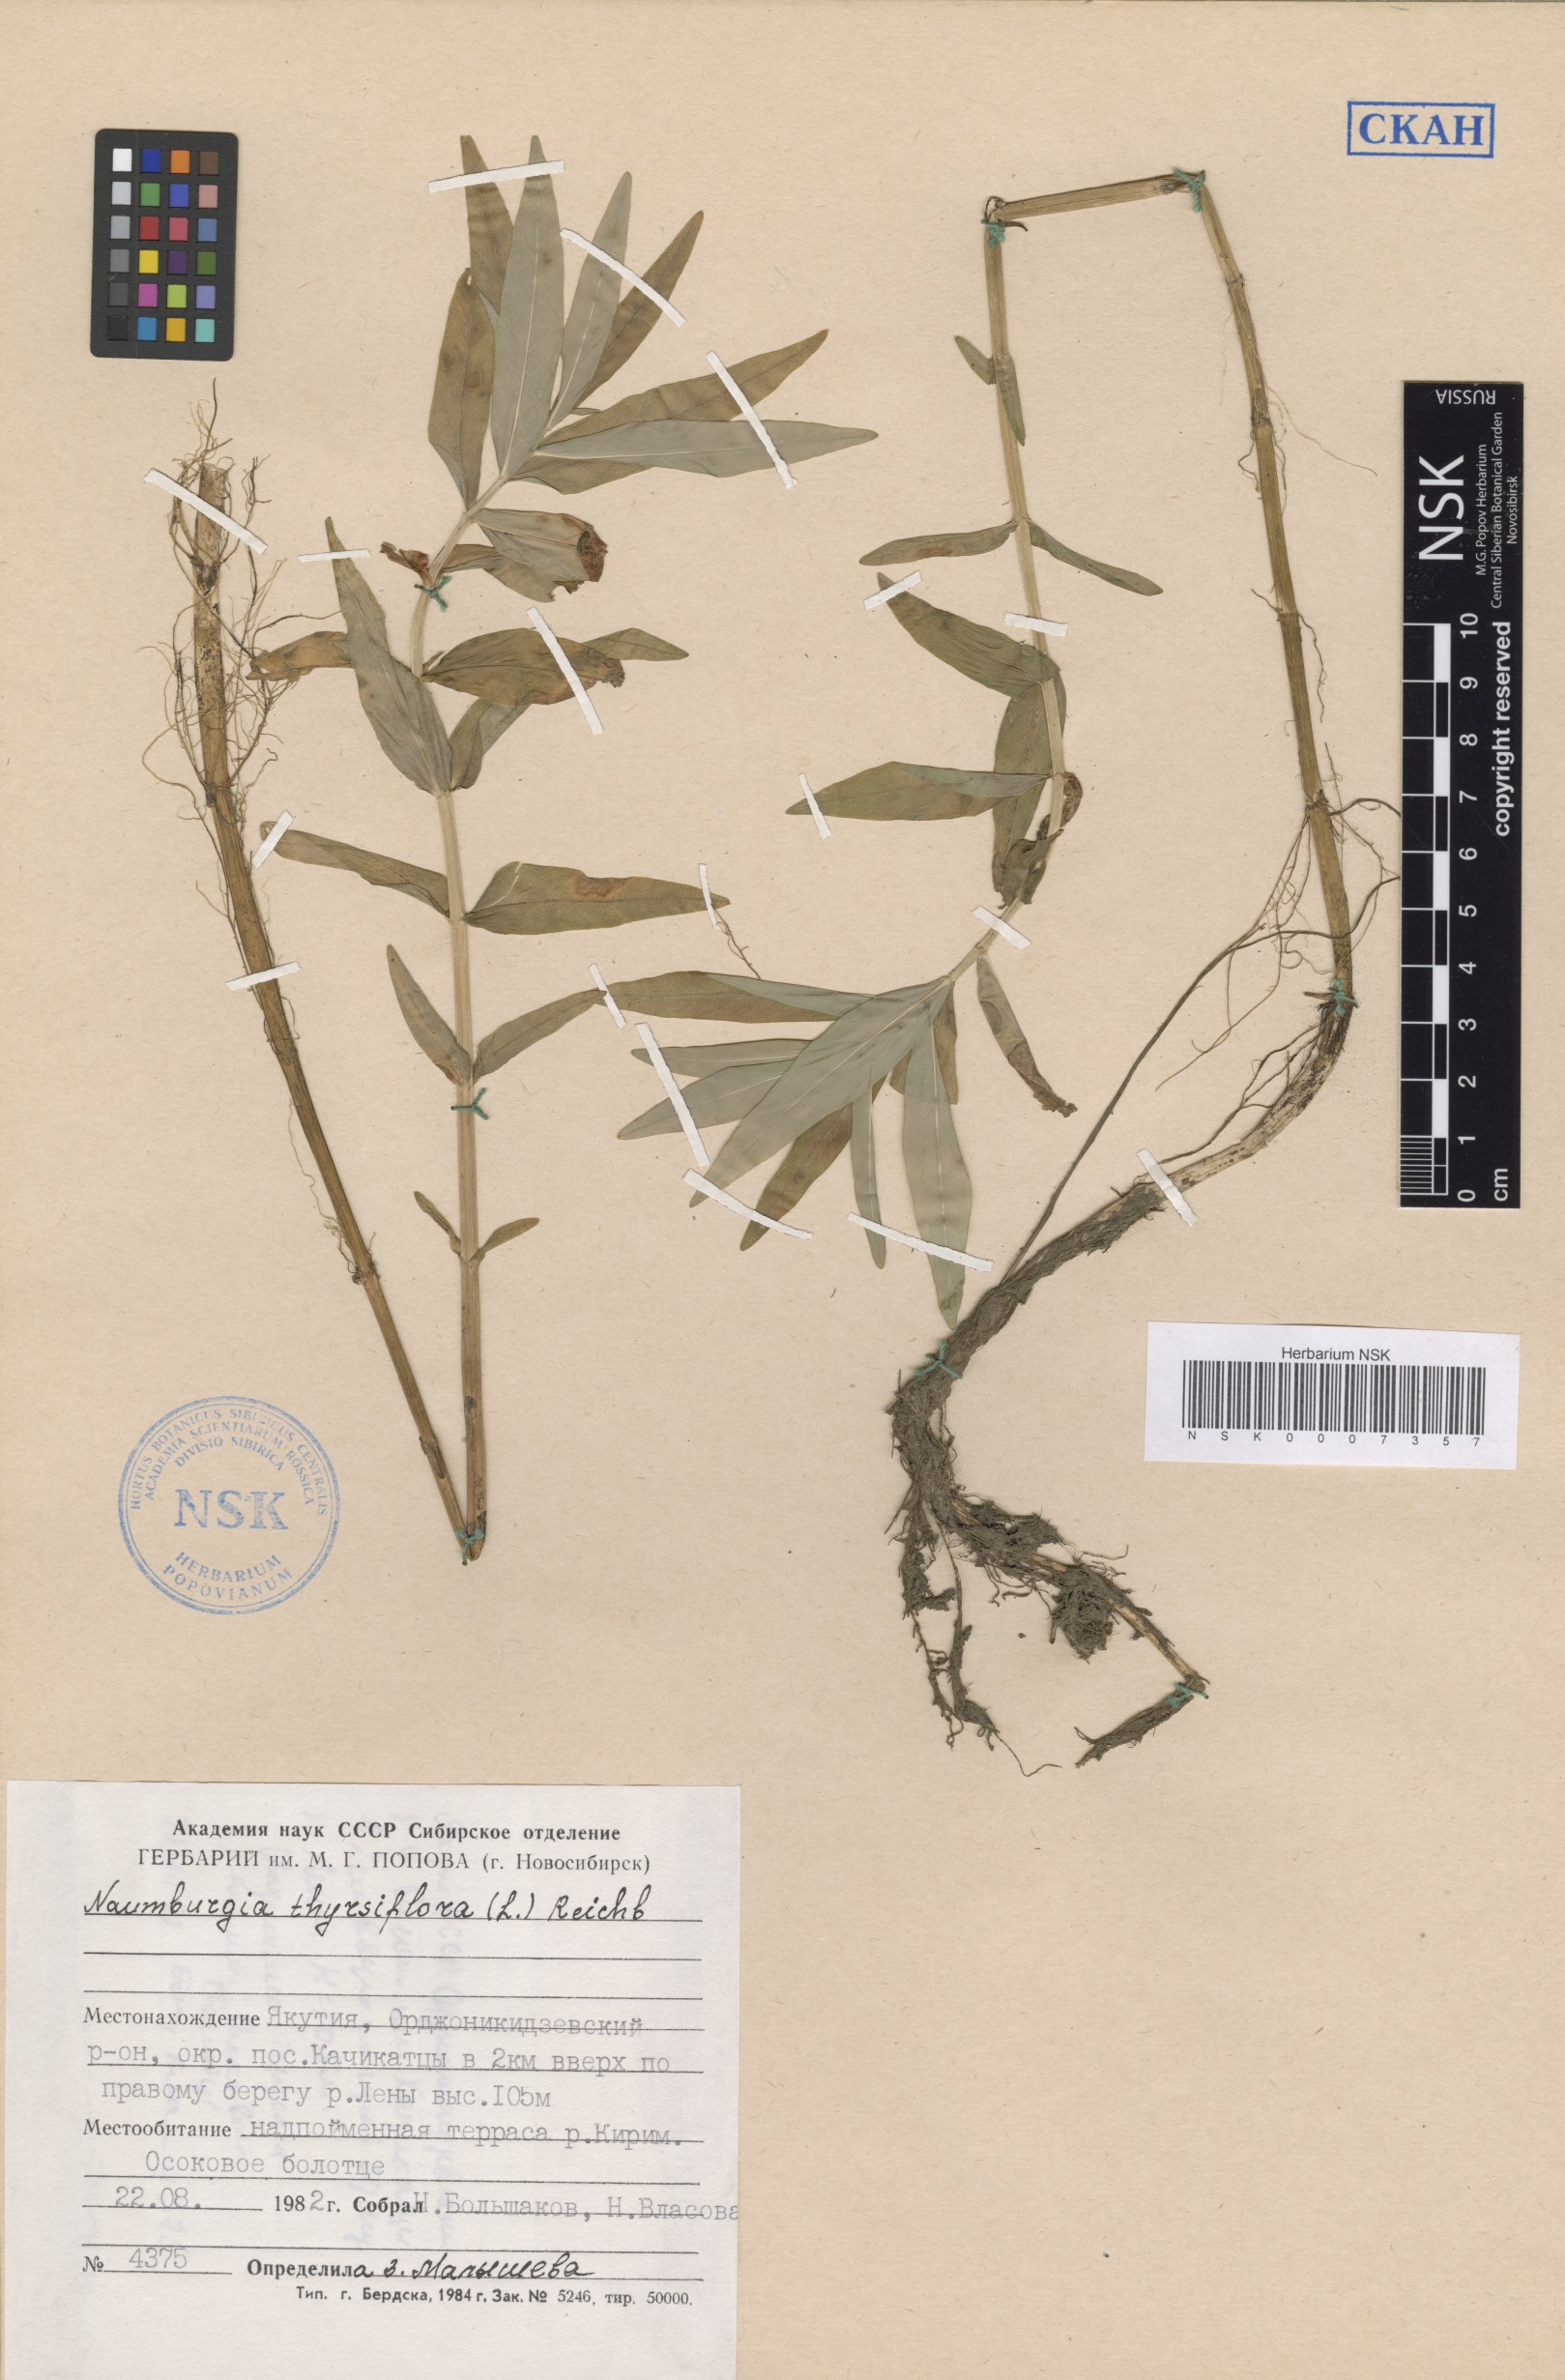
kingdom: Plantae
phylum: Tracheophyta
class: Magnoliopsida
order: Ericales
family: Primulaceae
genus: Lysimachia
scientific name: Lysimachia thyrsiflora
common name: Tufted loosestrife
